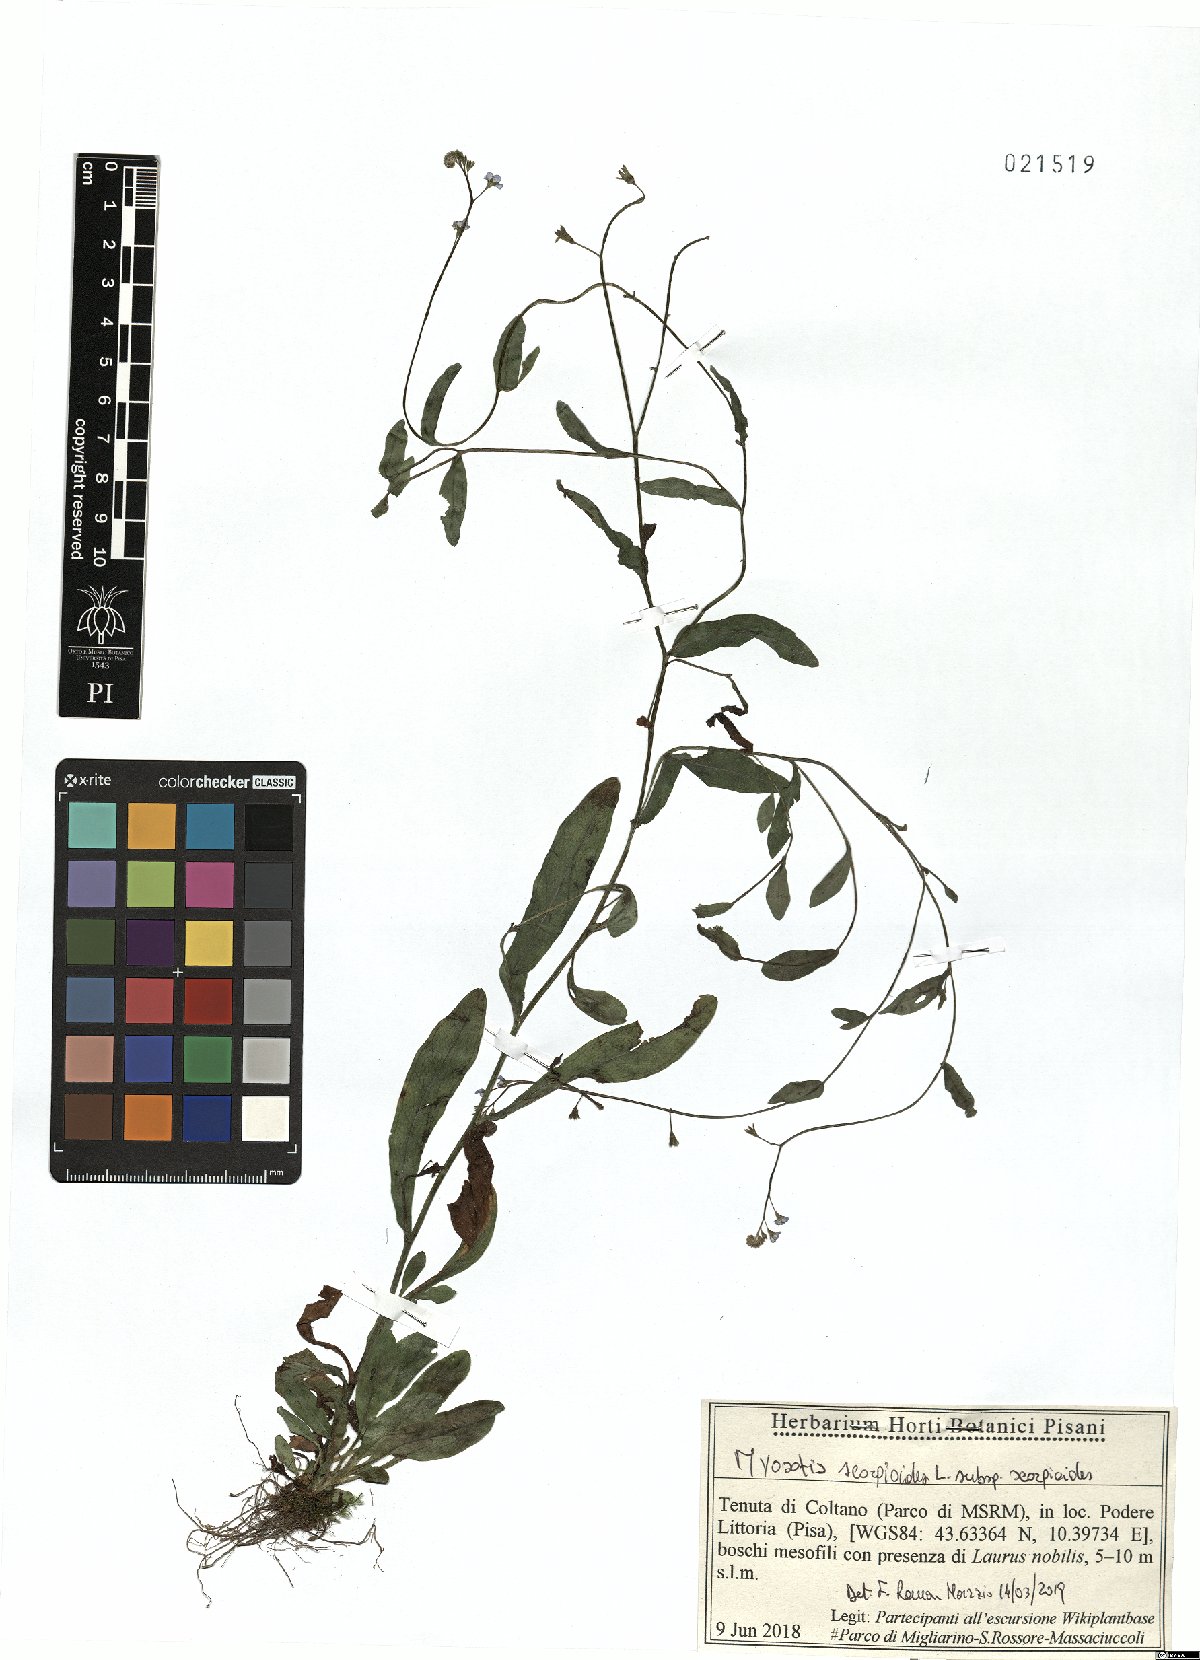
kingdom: Plantae
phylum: Tracheophyta
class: Magnoliopsida
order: Boraginales
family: Boraginaceae
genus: Myosotis
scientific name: Myosotis scorpioides
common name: Water forget-me-not
